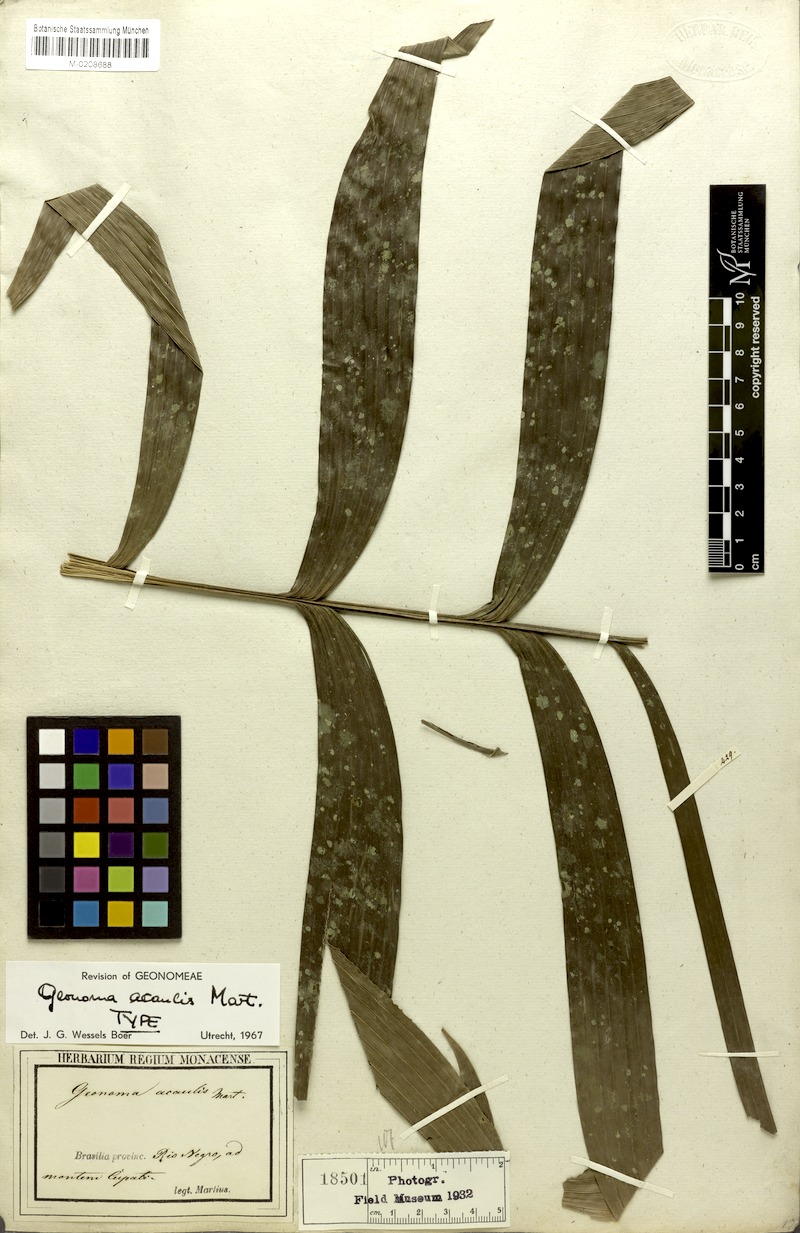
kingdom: Plantae
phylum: Tracheophyta
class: Liliopsida
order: Arecales
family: Arecaceae
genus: Geonoma
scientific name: Geonoma macrostachys
